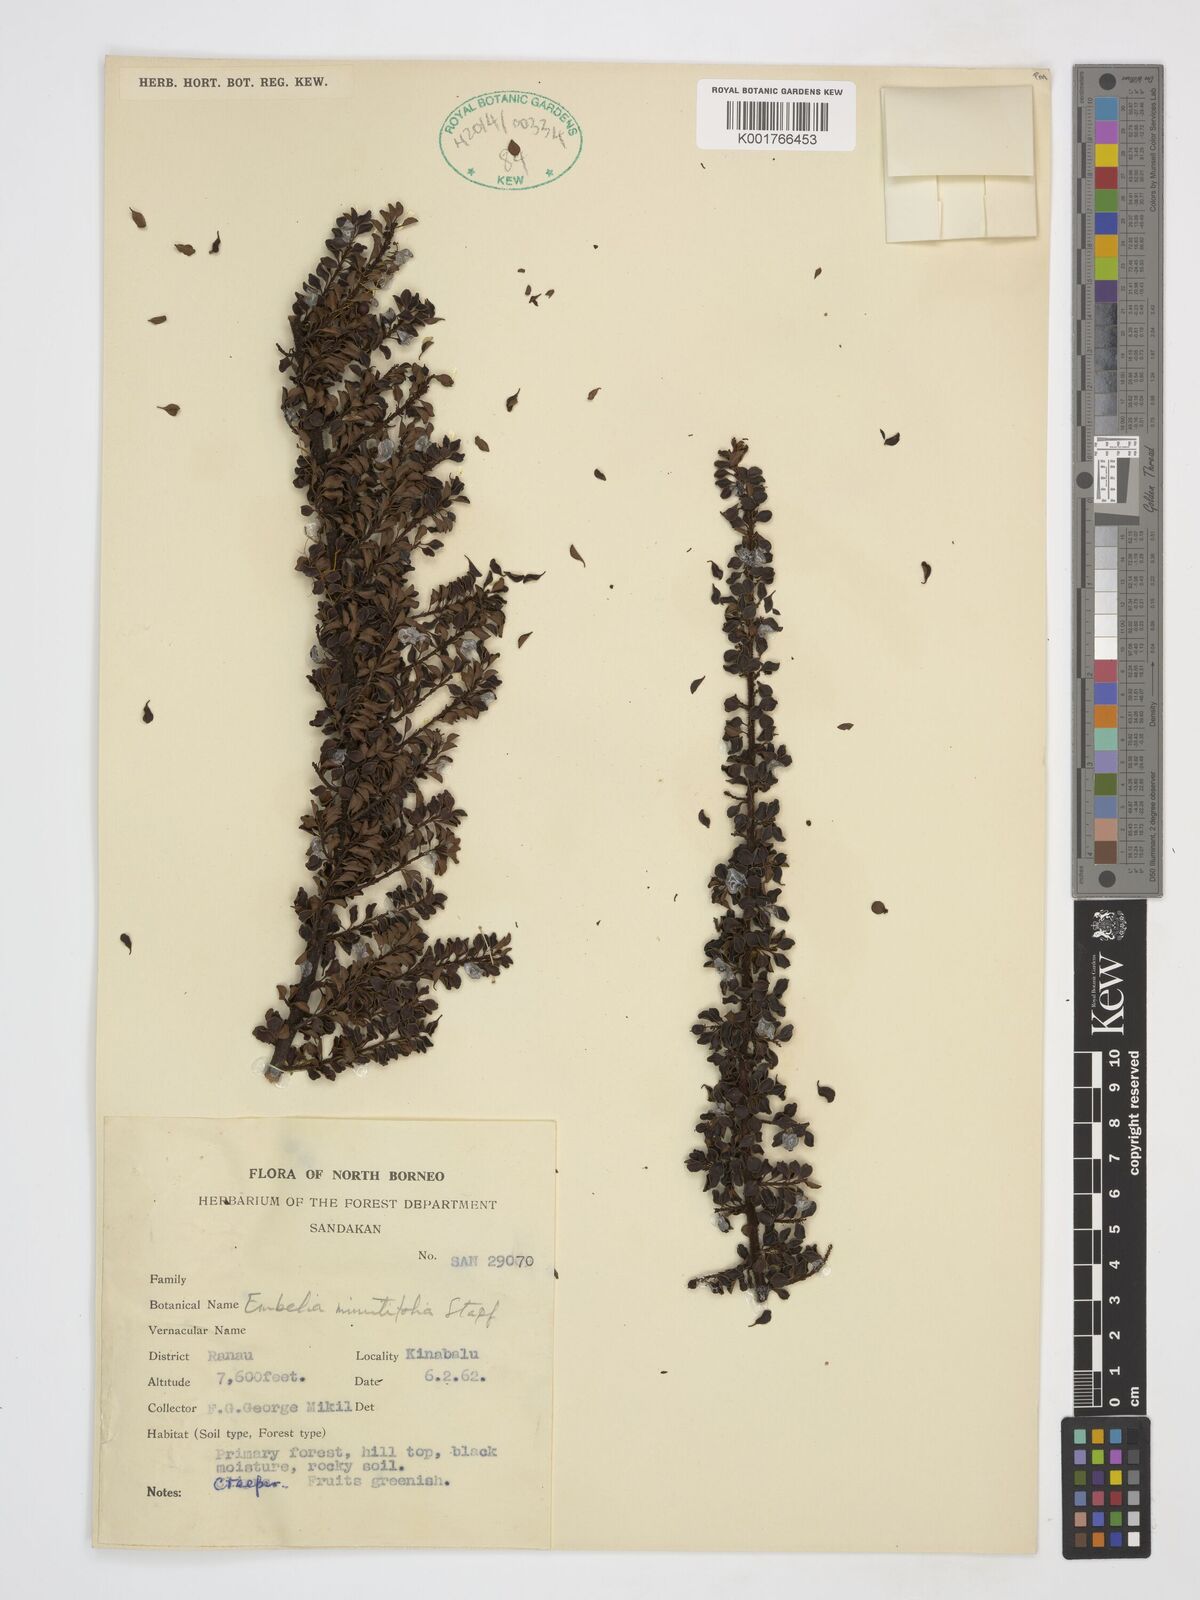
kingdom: Plantae
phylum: Tracheophyta
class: Magnoliopsida
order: Ericales
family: Primulaceae
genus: Embelia
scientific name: Embelia minutifolia
